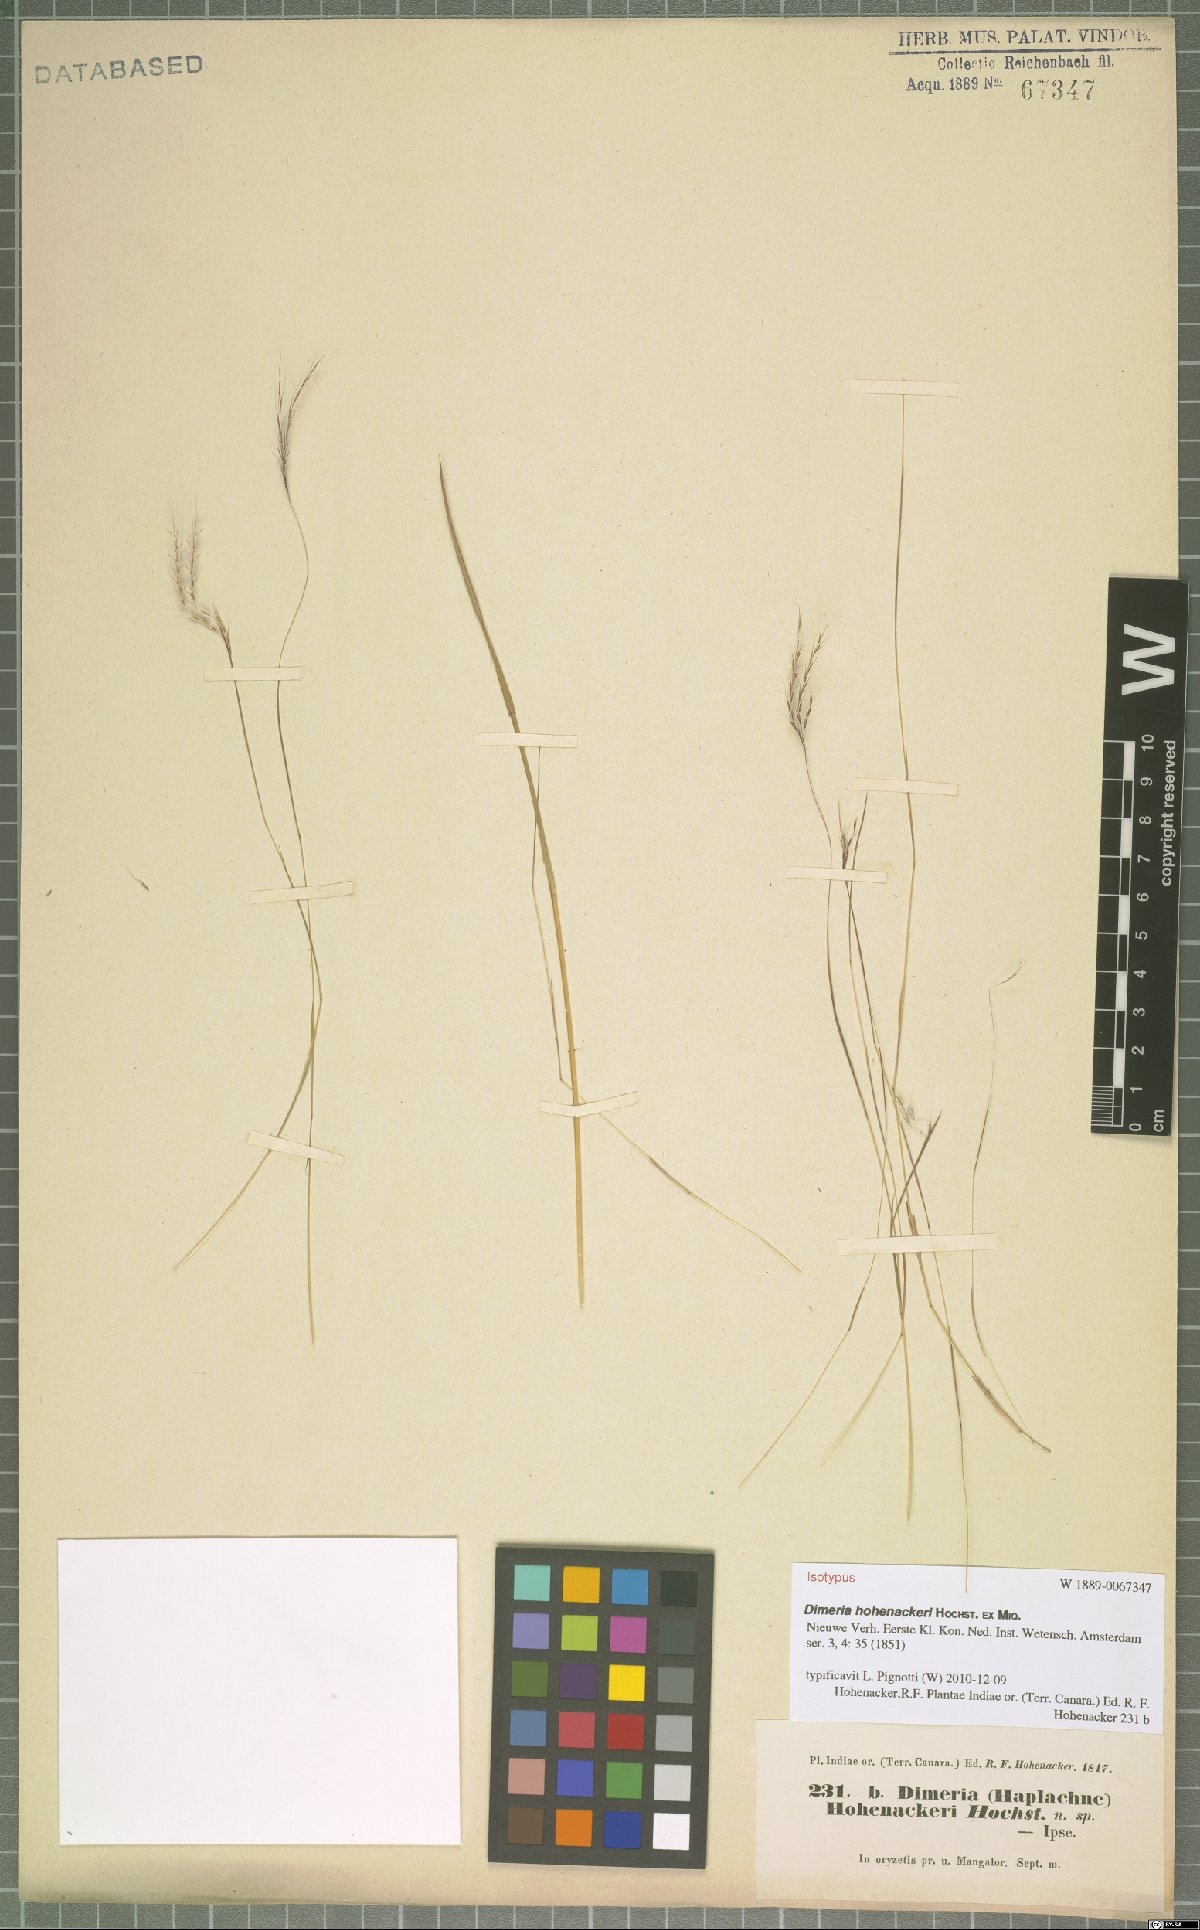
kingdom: Plantae
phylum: Tracheophyta
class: Liliopsida
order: Poales
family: Poaceae
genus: Dimeria
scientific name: Dimeria hohenackeri
